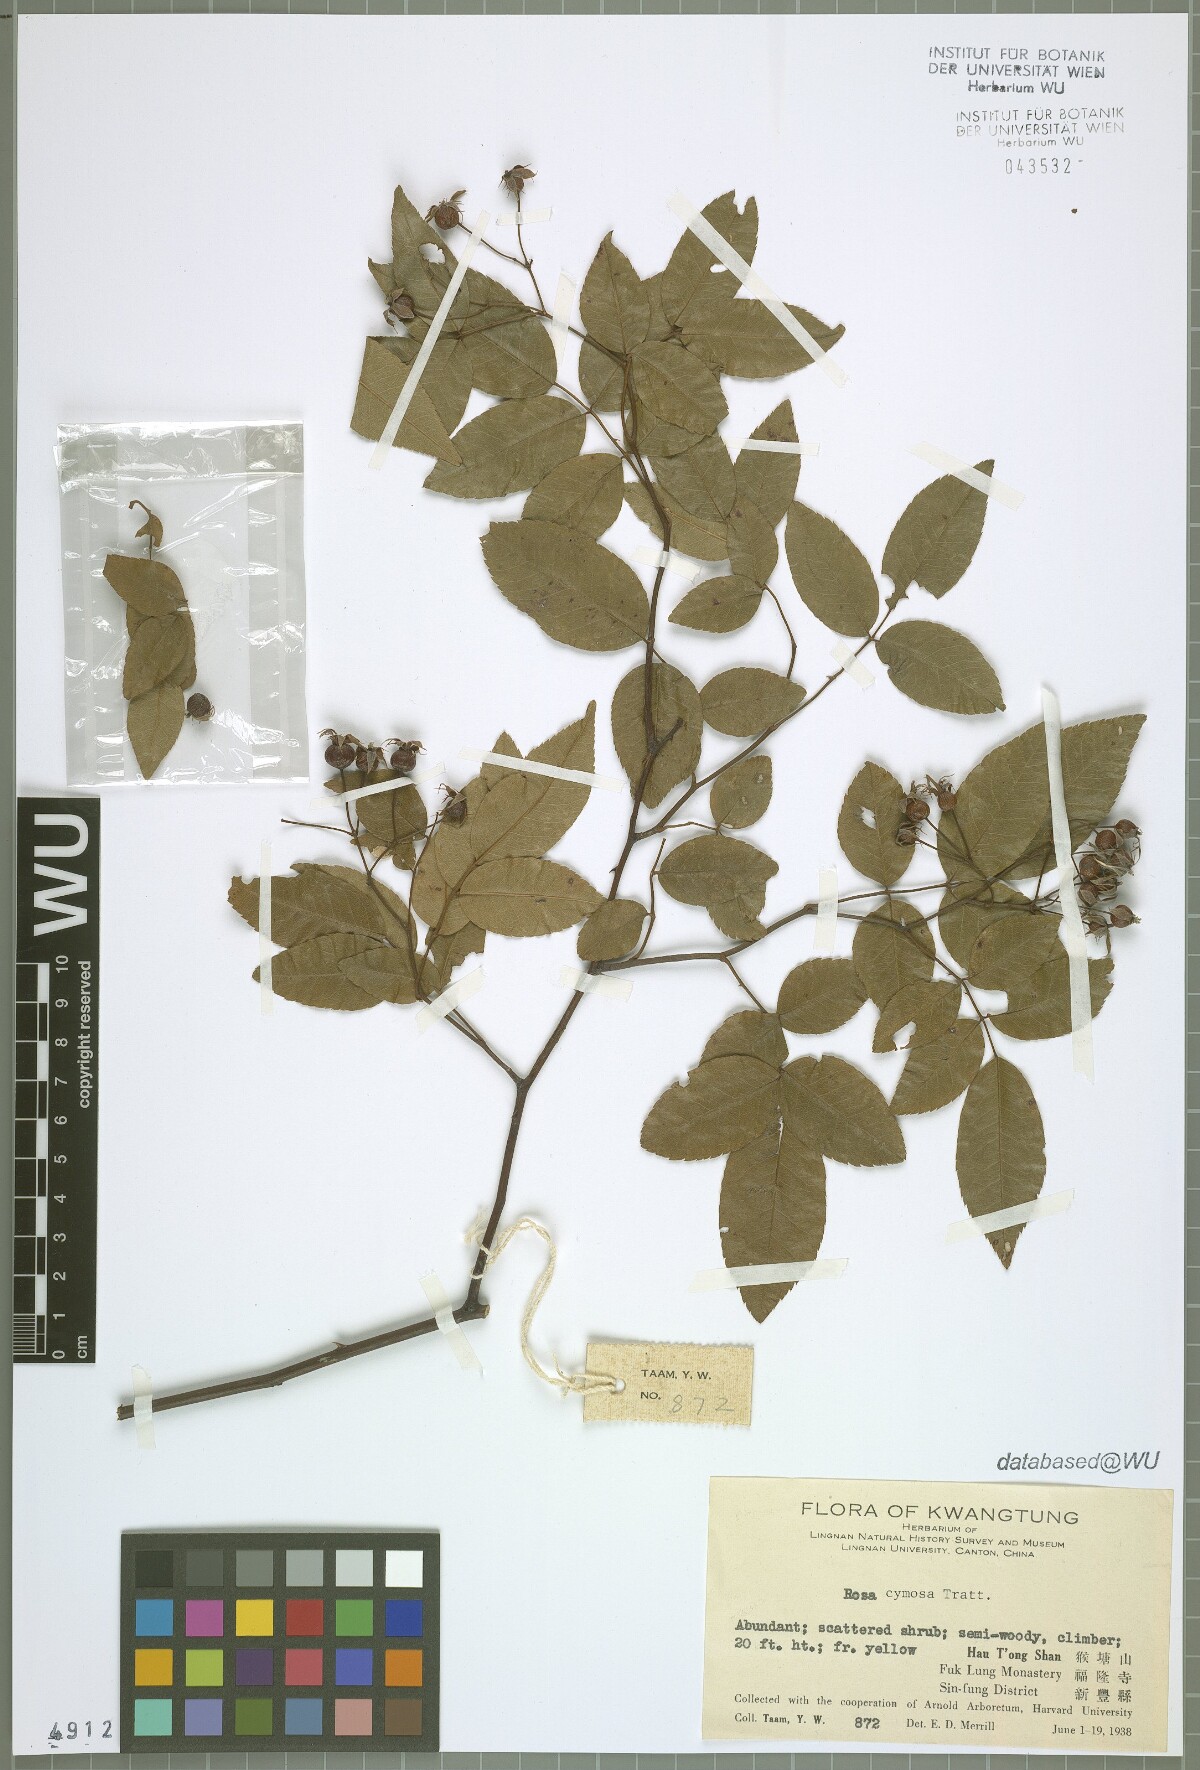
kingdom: Plantae
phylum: Tracheophyta
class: Magnoliopsida
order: Rosales
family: Rosaceae
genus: Rosa
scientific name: Rosa indica
